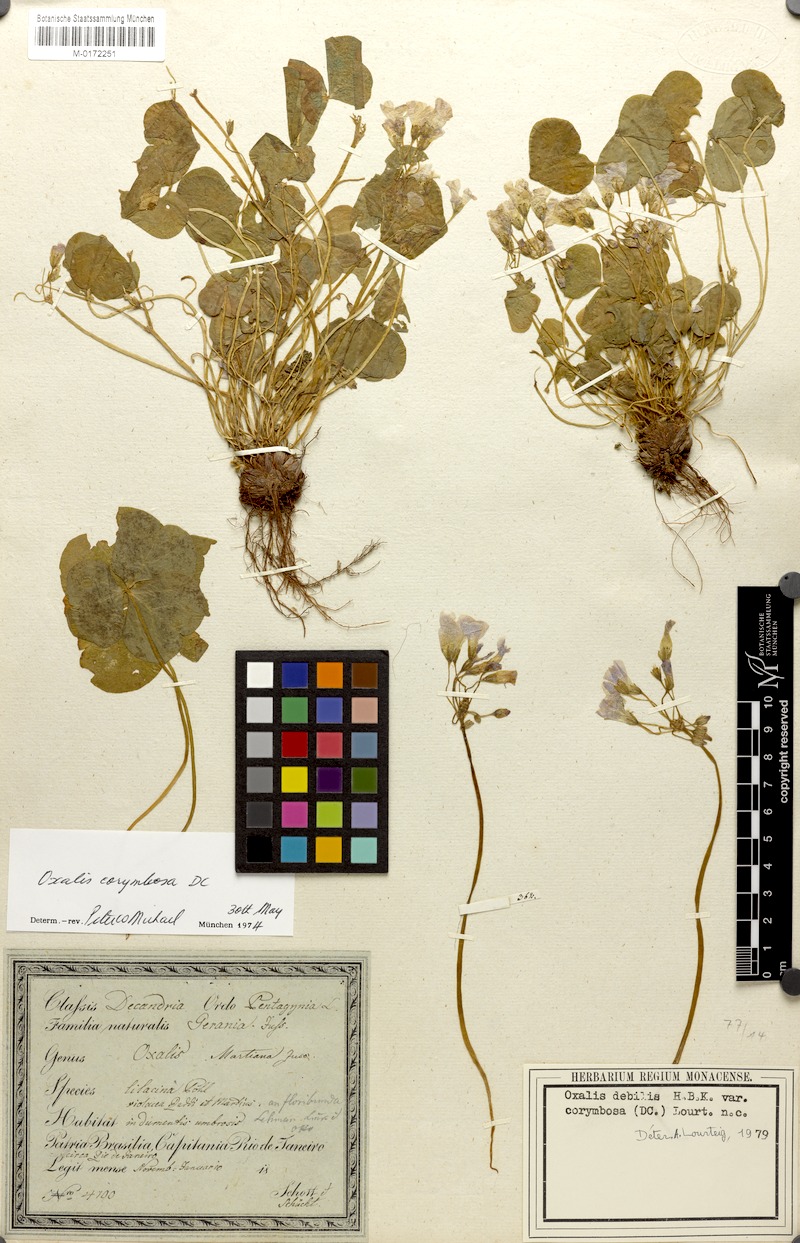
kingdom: Plantae
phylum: Tracheophyta
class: Magnoliopsida
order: Oxalidales
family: Oxalidaceae
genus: Oxalis
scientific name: Oxalis debilis
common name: Large-flowered pink-sorrel
